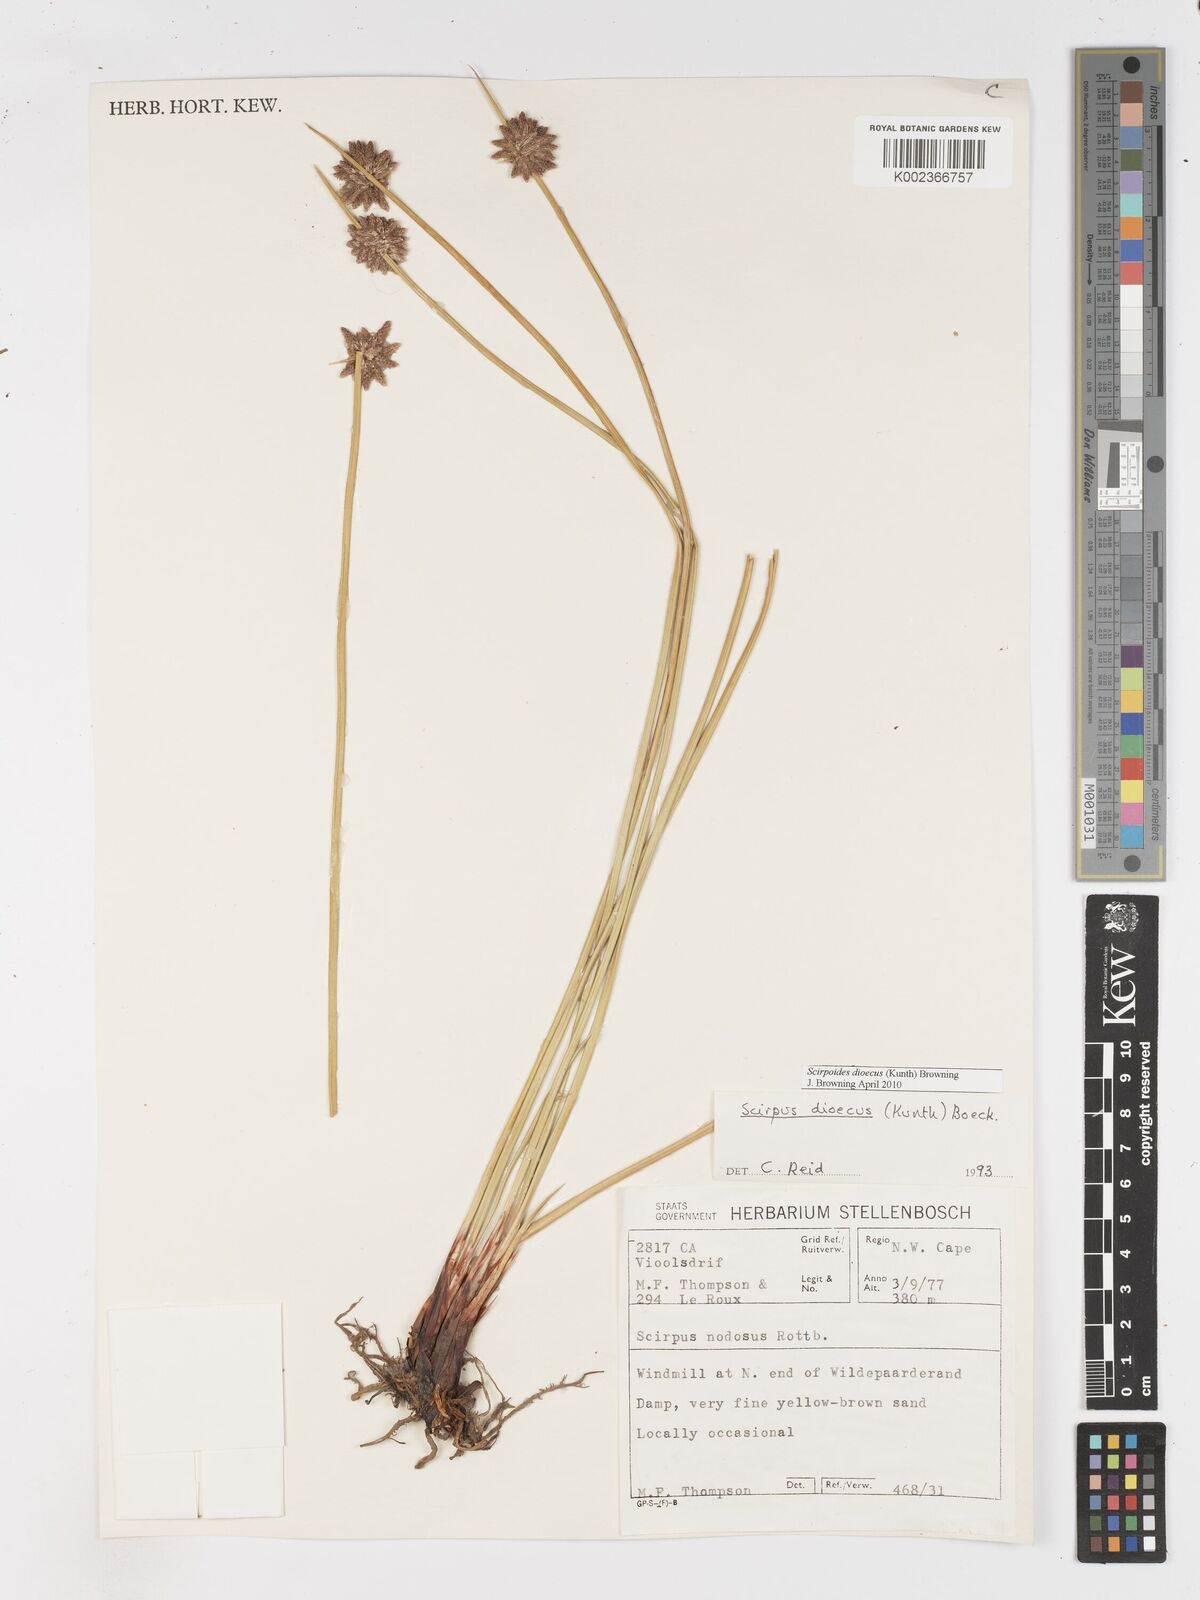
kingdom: Plantae
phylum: Tracheophyta
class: Liliopsida
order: Poales
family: Cyperaceae
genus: Afroscirpoides
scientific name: Afroscirpoides dioeca
